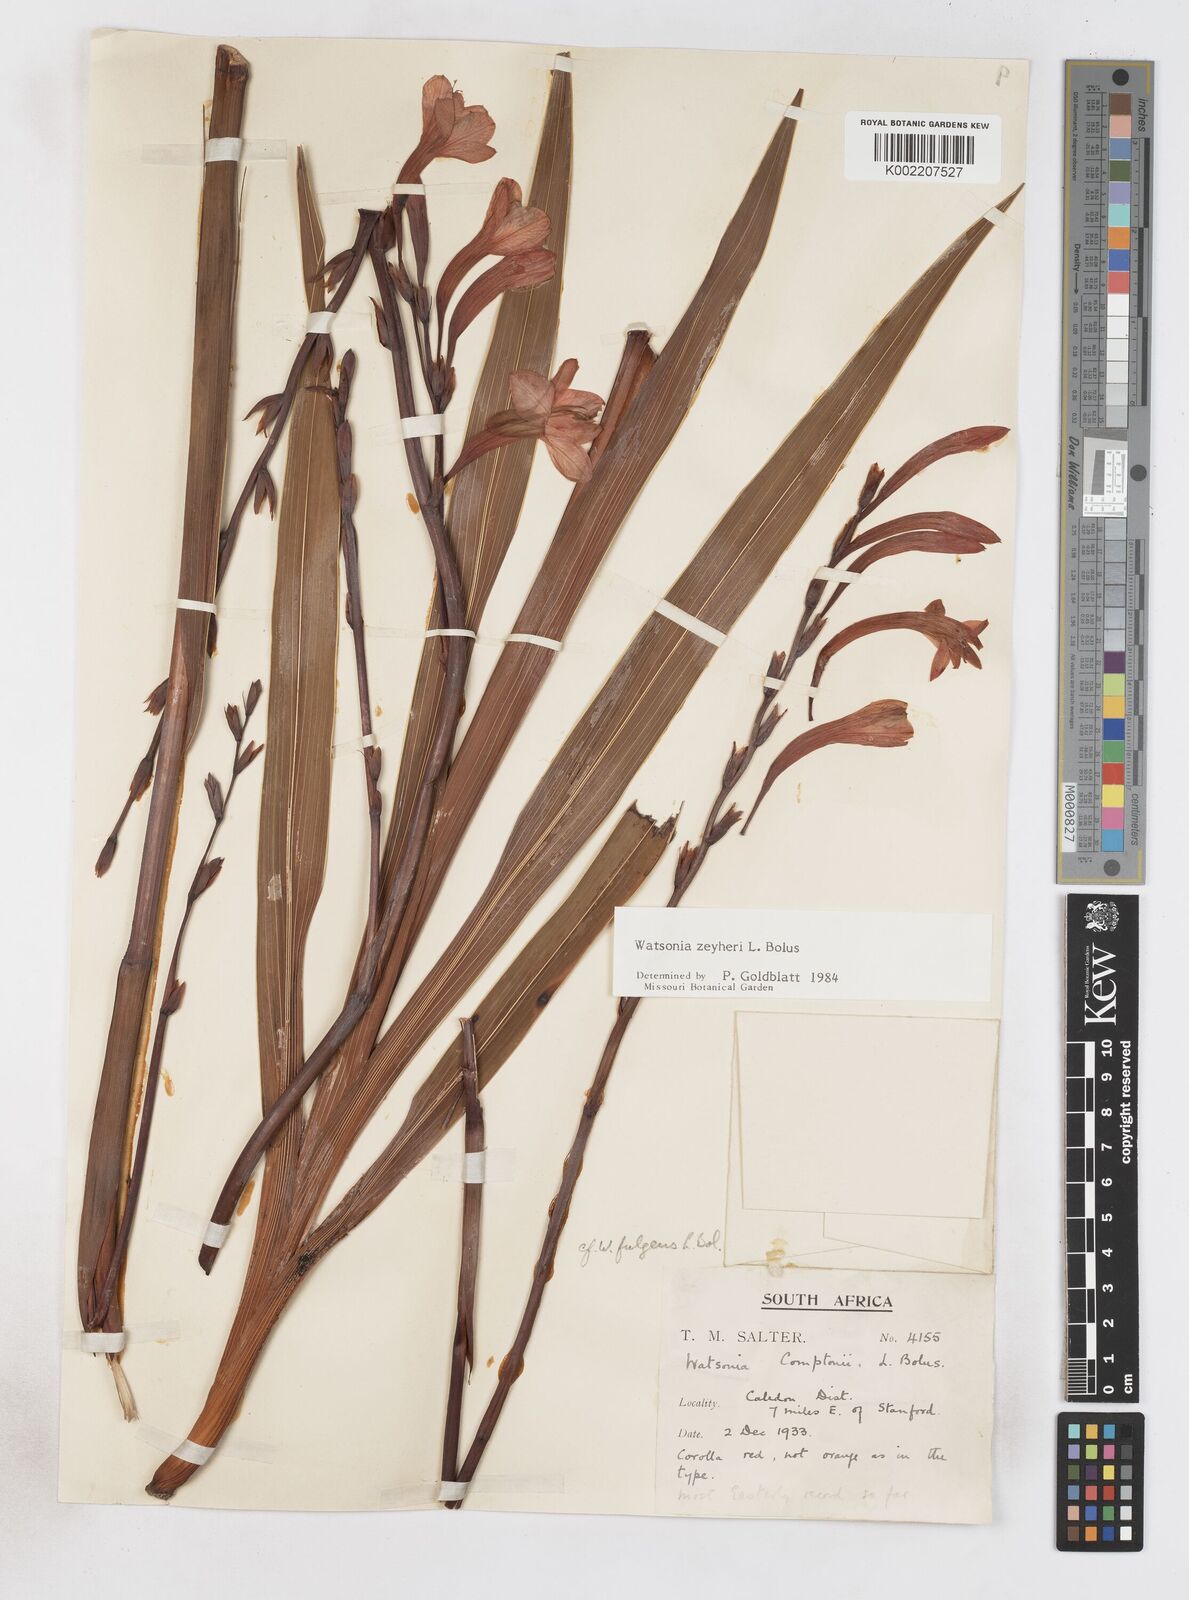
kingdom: Plantae
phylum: Tracheophyta
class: Liliopsida
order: Asparagales
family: Iridaceae
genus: Watsonia
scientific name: Watsonia zeyheri
